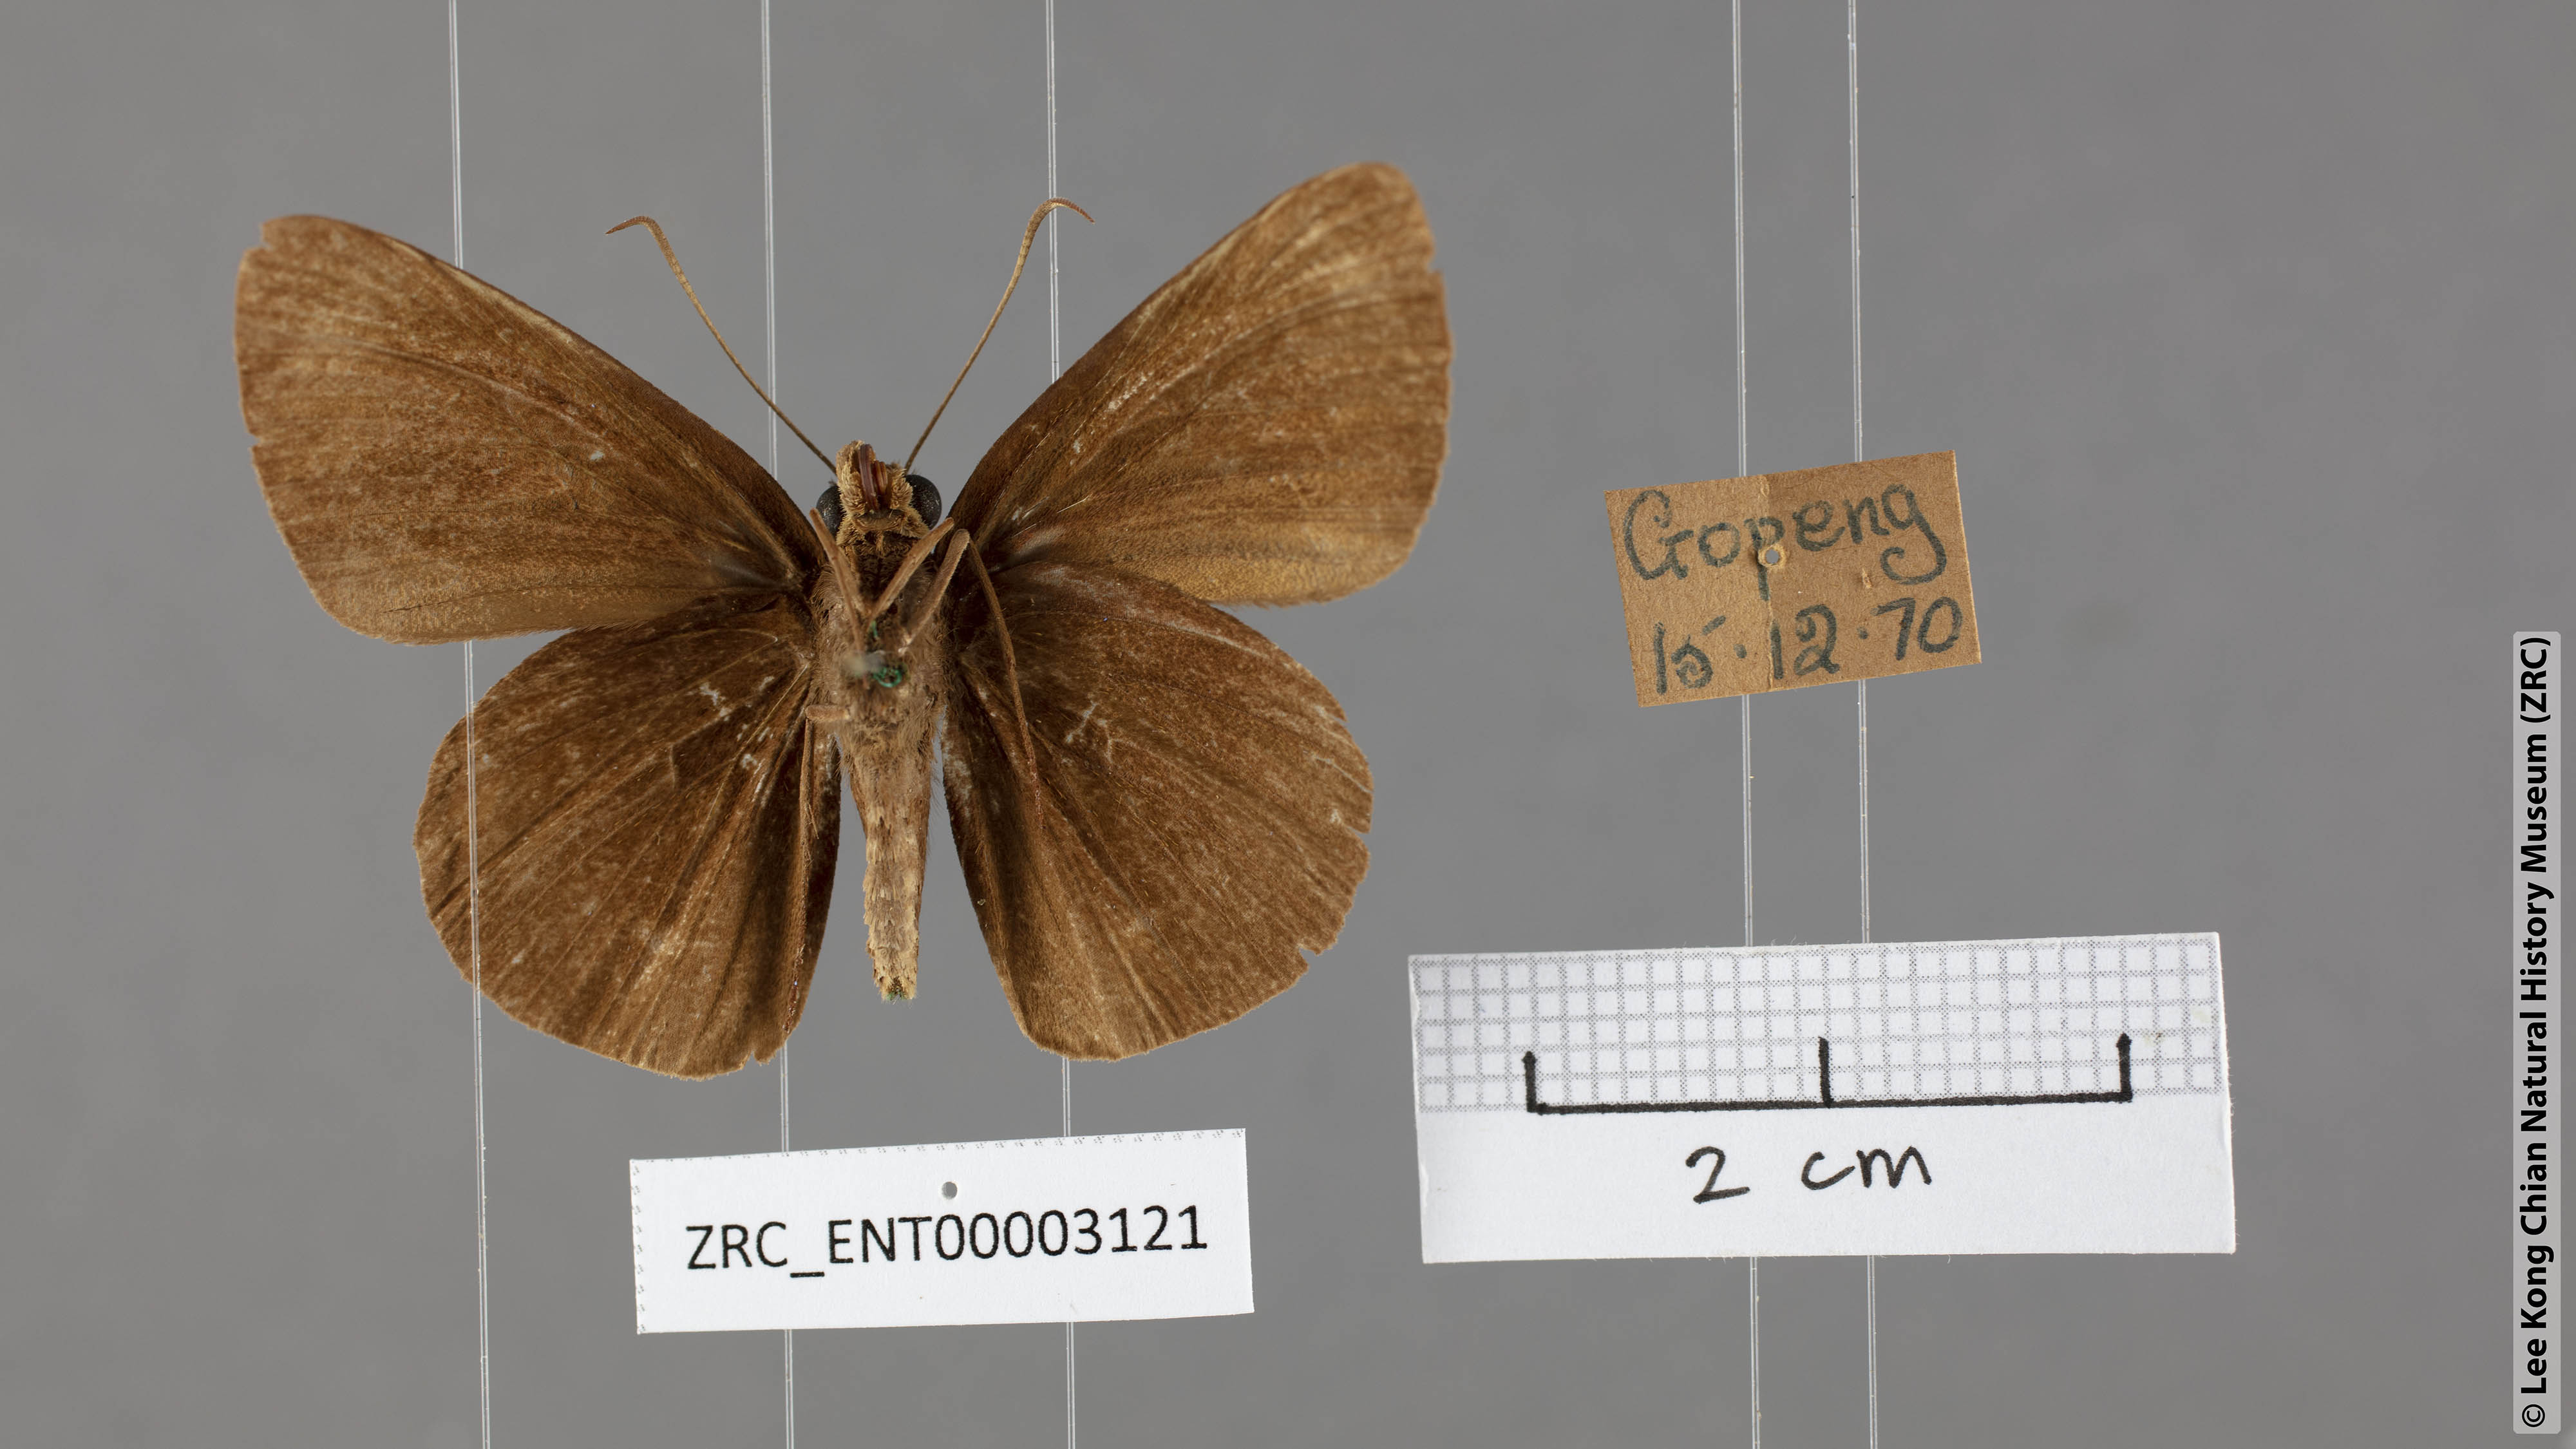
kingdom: Animalia
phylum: Arthropoda
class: Insecta
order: Lepidoptera
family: Hesperiidae
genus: Ancistroides
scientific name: Ancistroides nigrita
